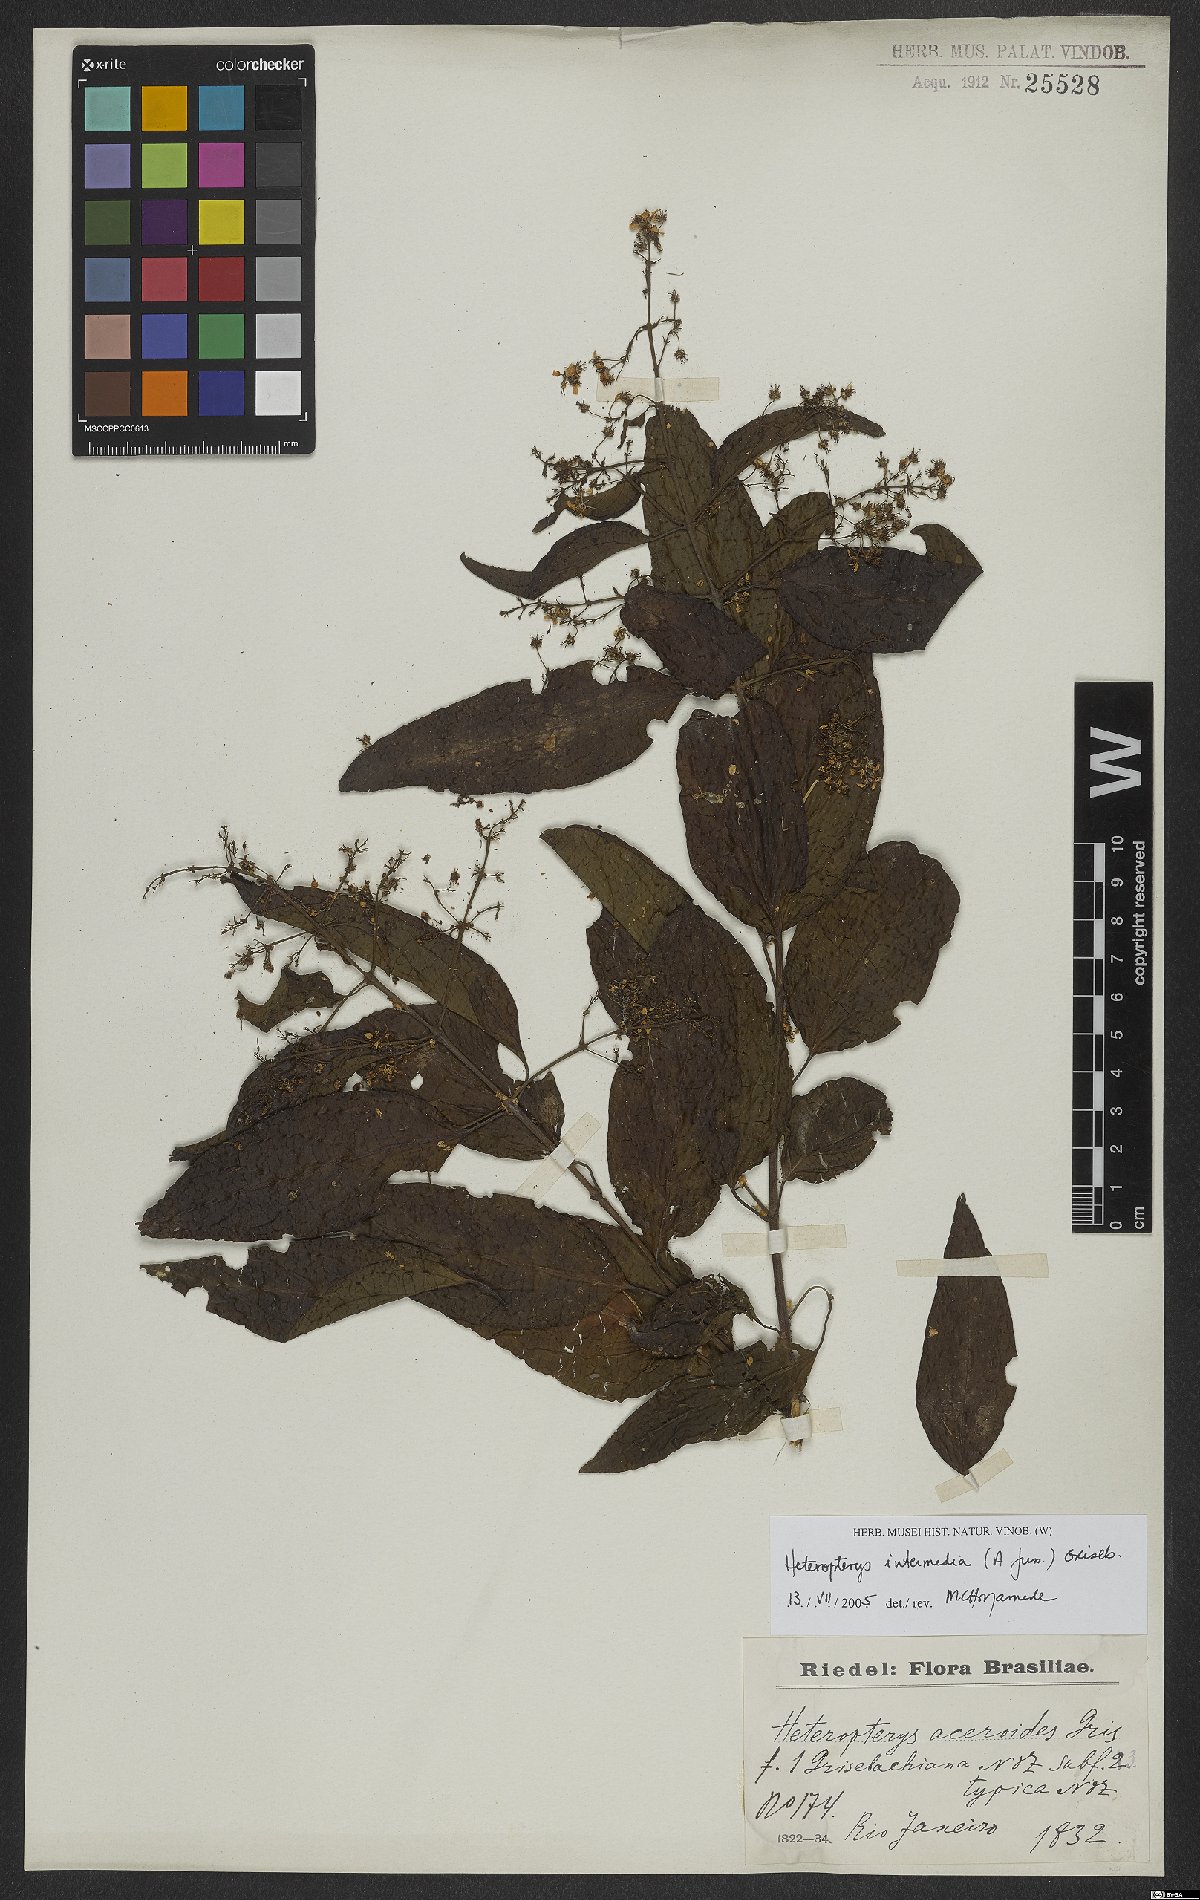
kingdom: Plantae
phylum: Tracheophyta
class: Magnoliopsida
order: Malpighiales
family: Malpighiaceae
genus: Heteropterys
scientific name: Heteropterys intermedia
